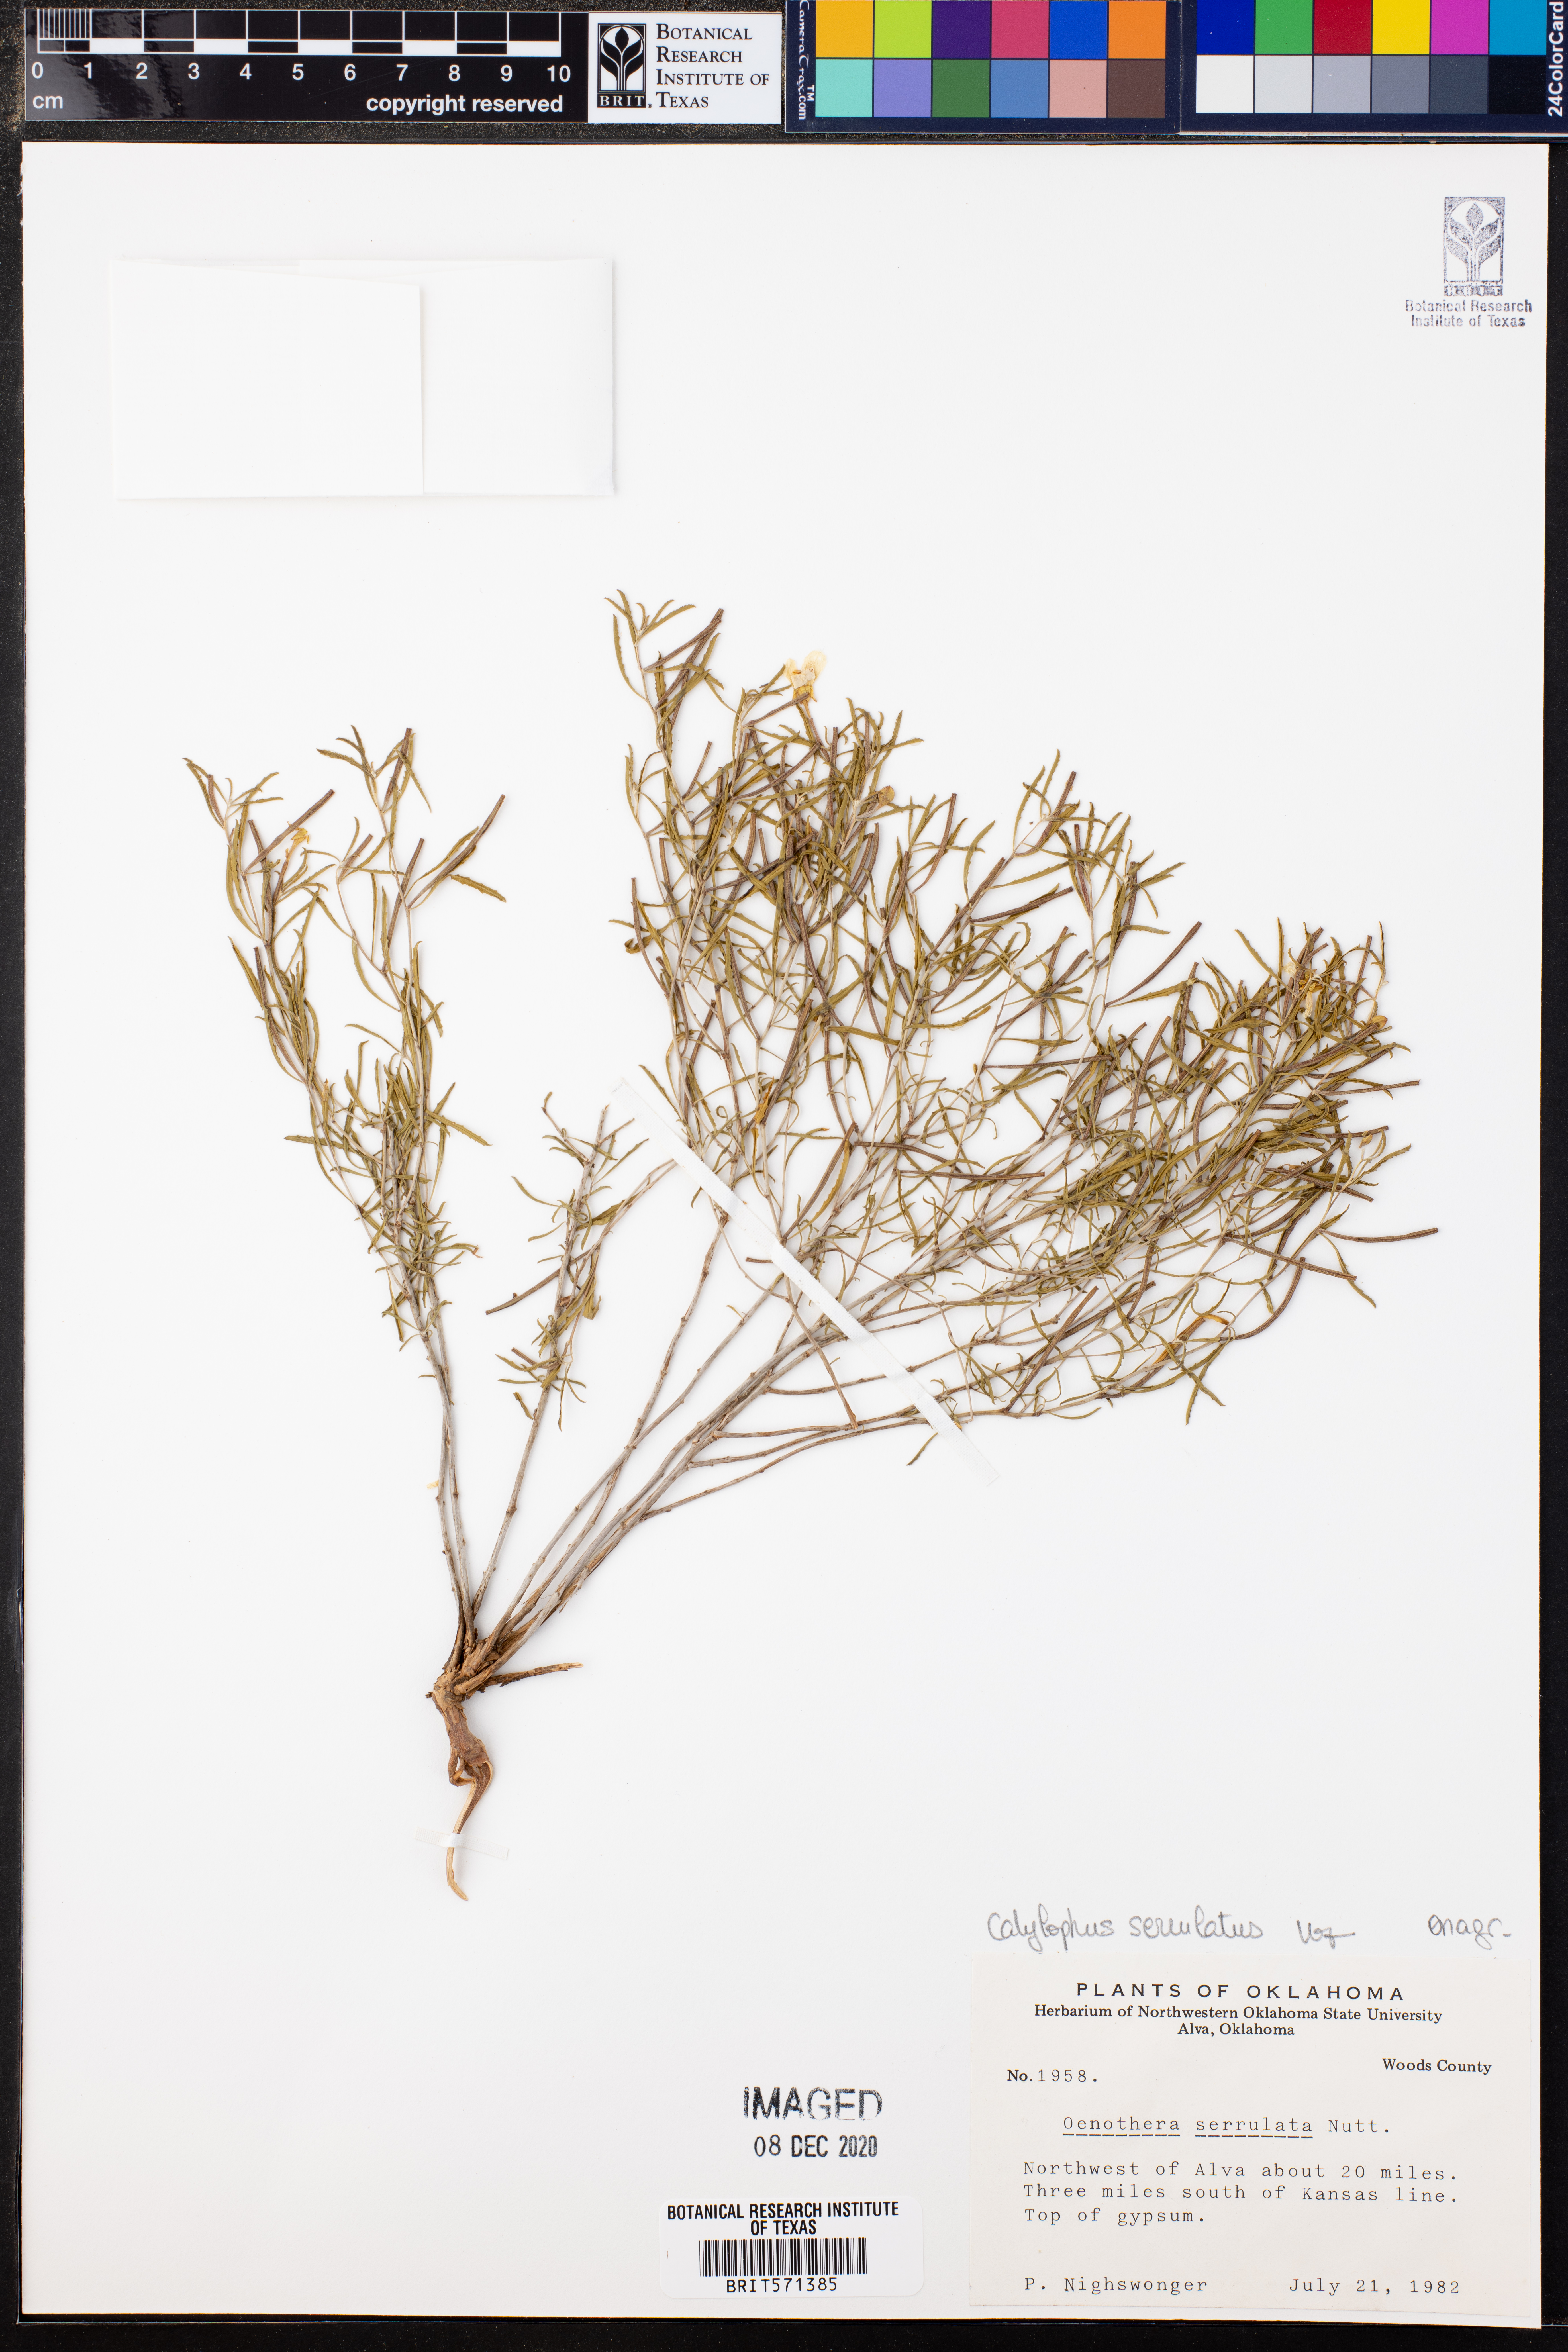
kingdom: Plantae
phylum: Tracheophyta
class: Magnoliopsida
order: Myrtales
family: Onagraceae
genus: Oenothera
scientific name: Oenothera serrulata
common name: Half-shrub calylophus
